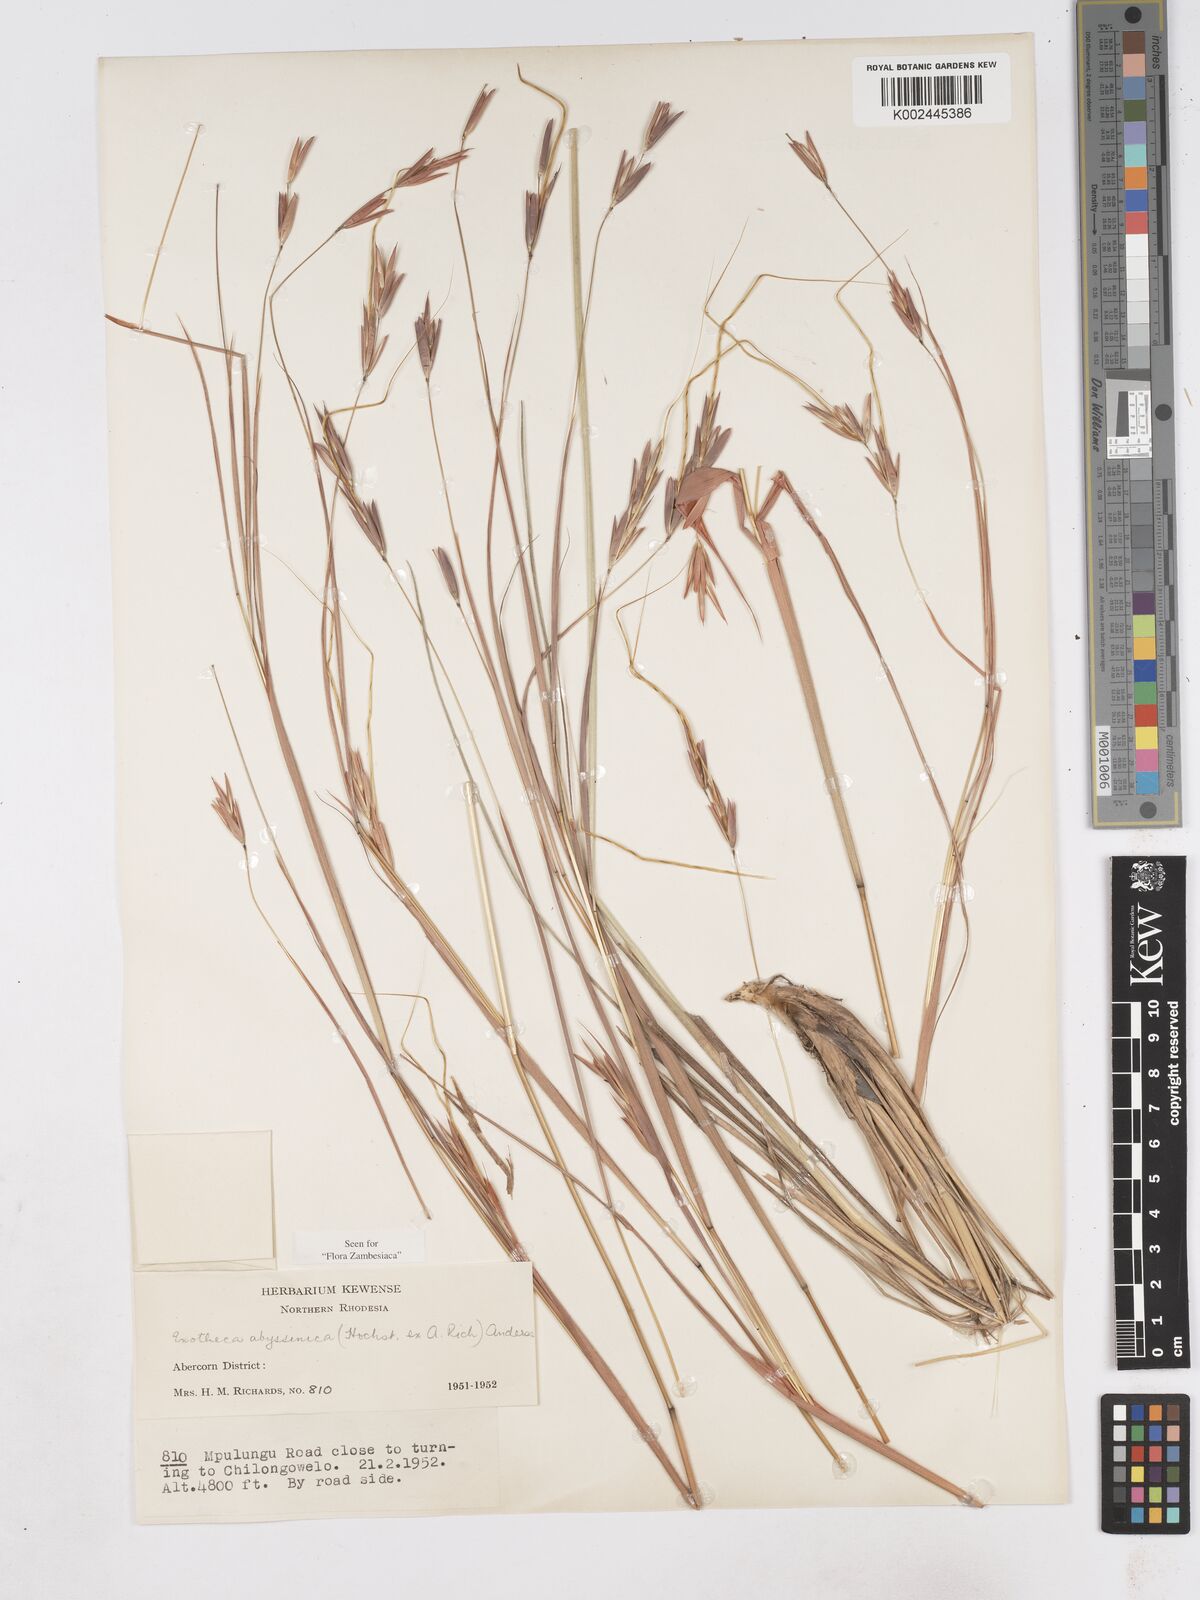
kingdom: Plantae
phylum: Tracheophyta
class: Liliopsida
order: Poales
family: Poaceae
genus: Exotheca
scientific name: Exotheca abyssinica
